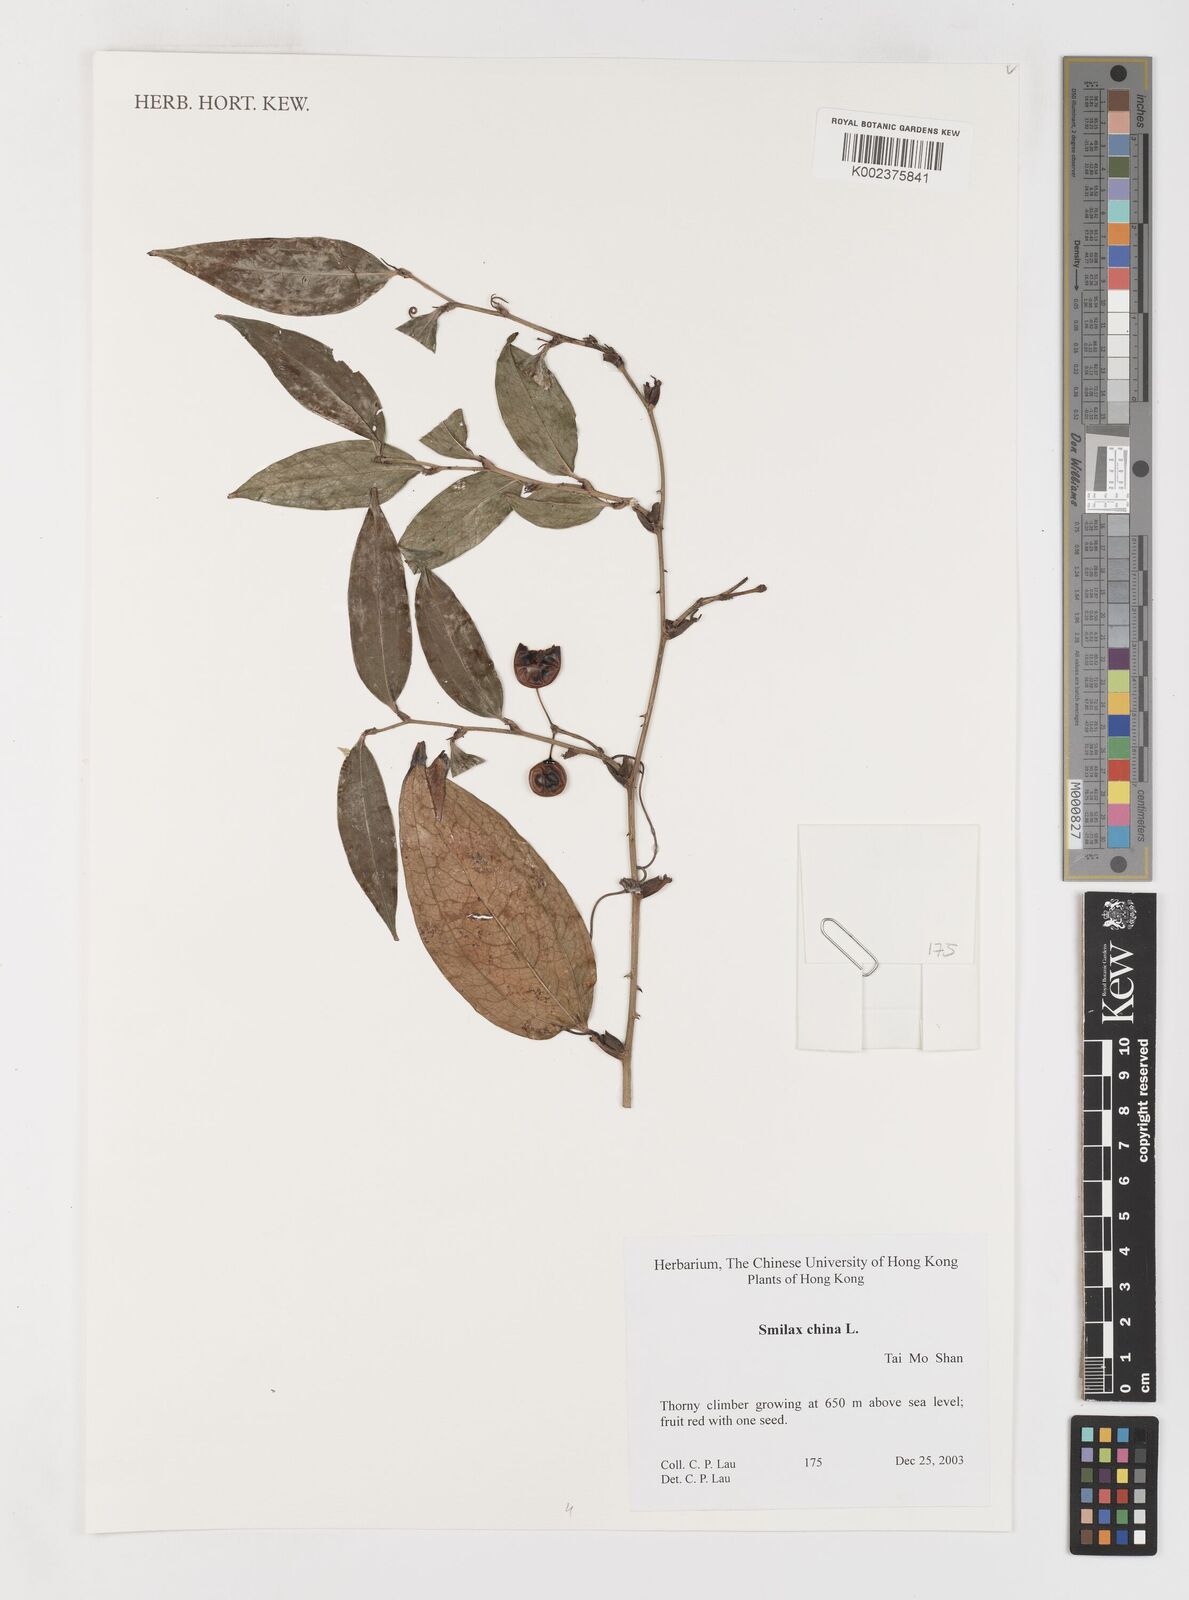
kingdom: Plantae
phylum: Tracheophyta
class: Liliopsida
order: Liliales
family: Smilacaceae
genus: Smilax
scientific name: Smilax china
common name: Chinaroot
